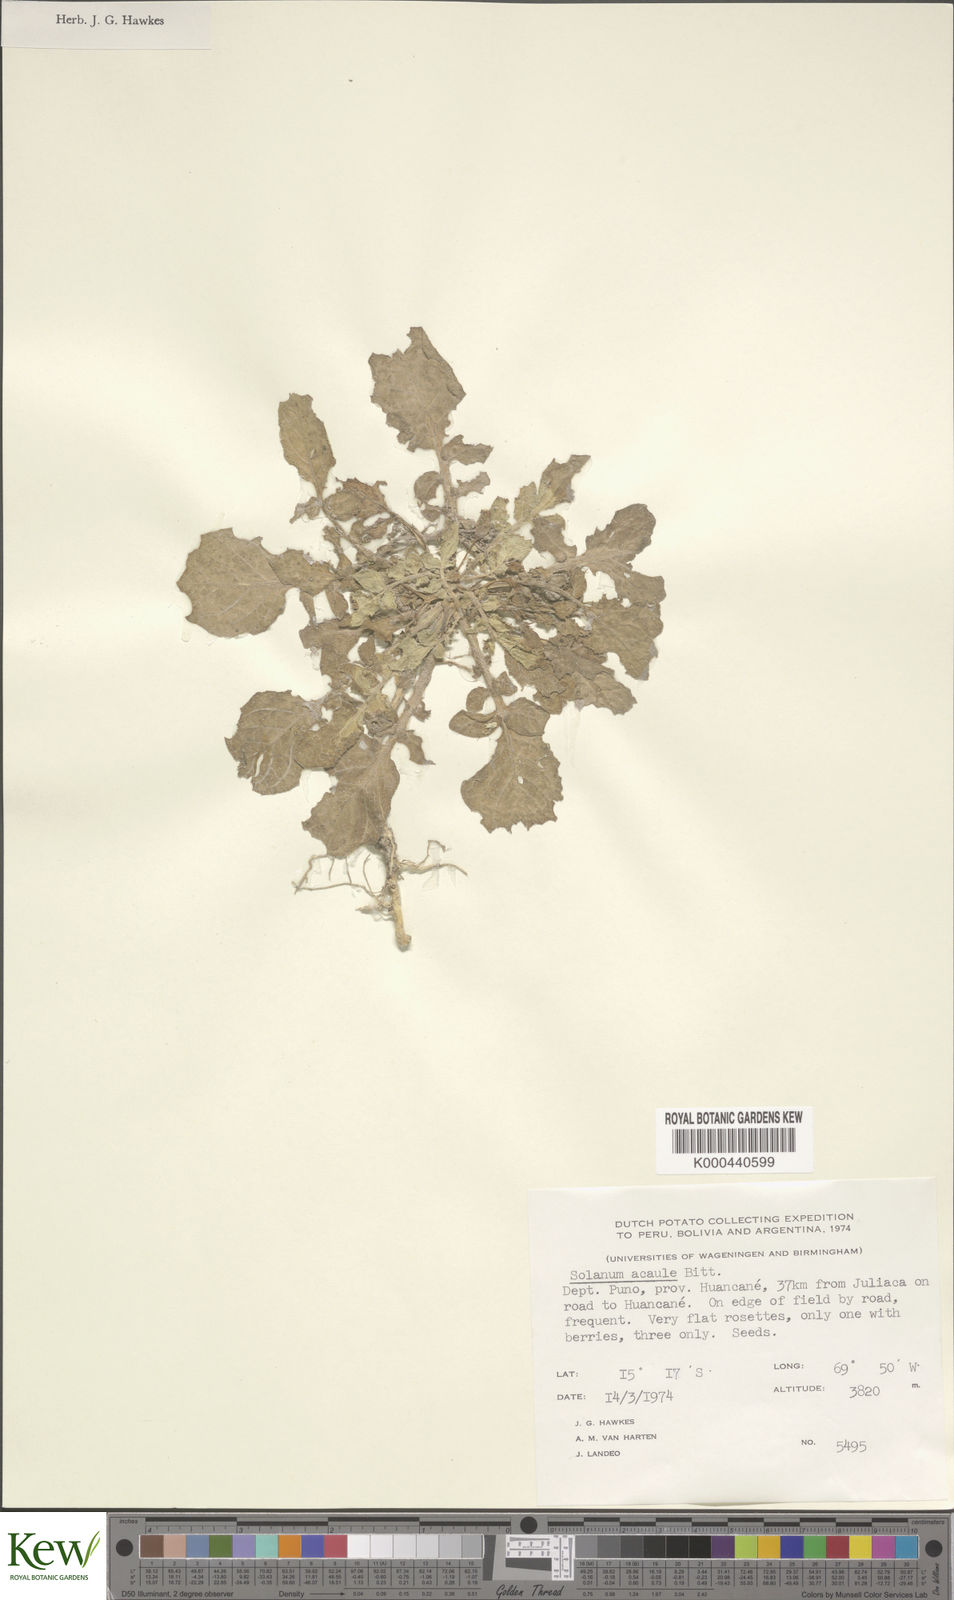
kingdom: Plantae
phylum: Tracheophyta
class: Magnoliopsida
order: Solanales
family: Solanaceae
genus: Solanum
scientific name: Solanum acaule
